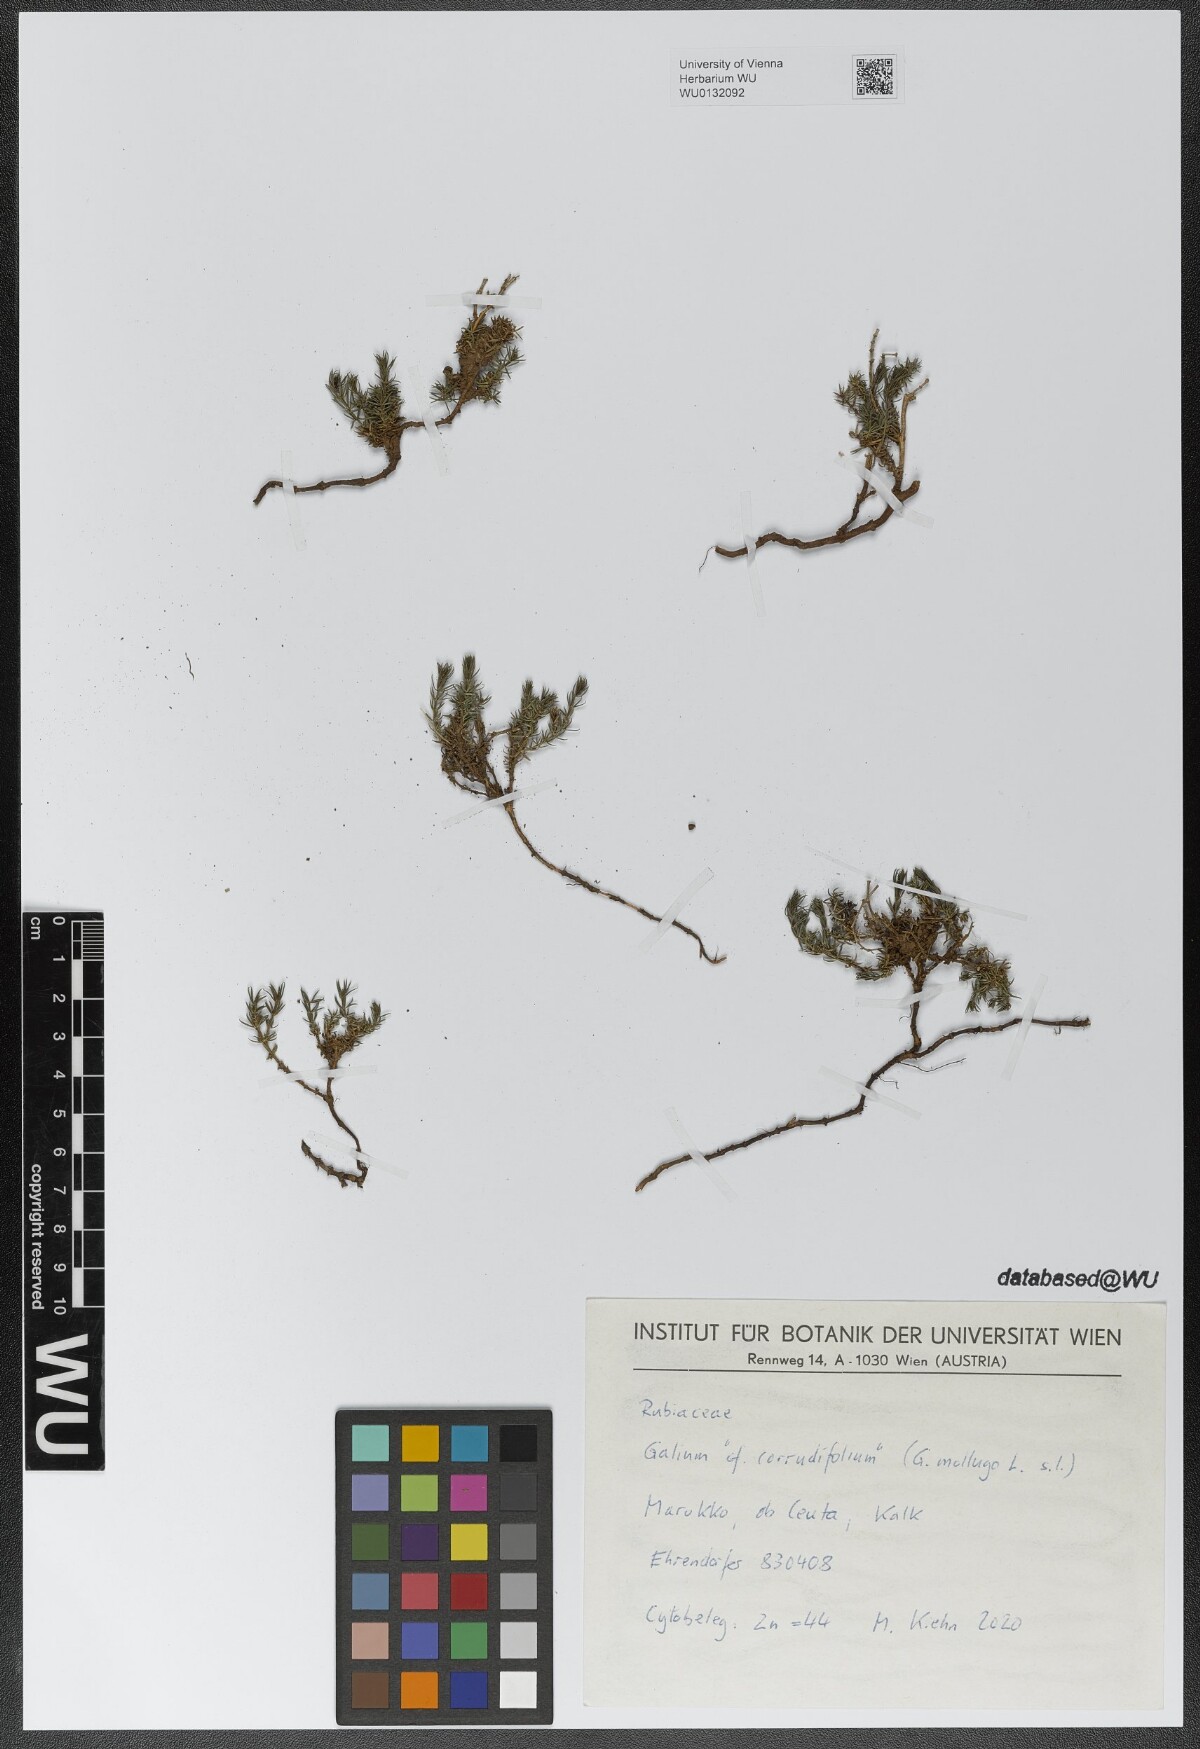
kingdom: Plantae
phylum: Tracheophyta
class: Magnoliopsida
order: Gentianales
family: Rubiaceae
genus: Galium
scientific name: Galium lucidum
